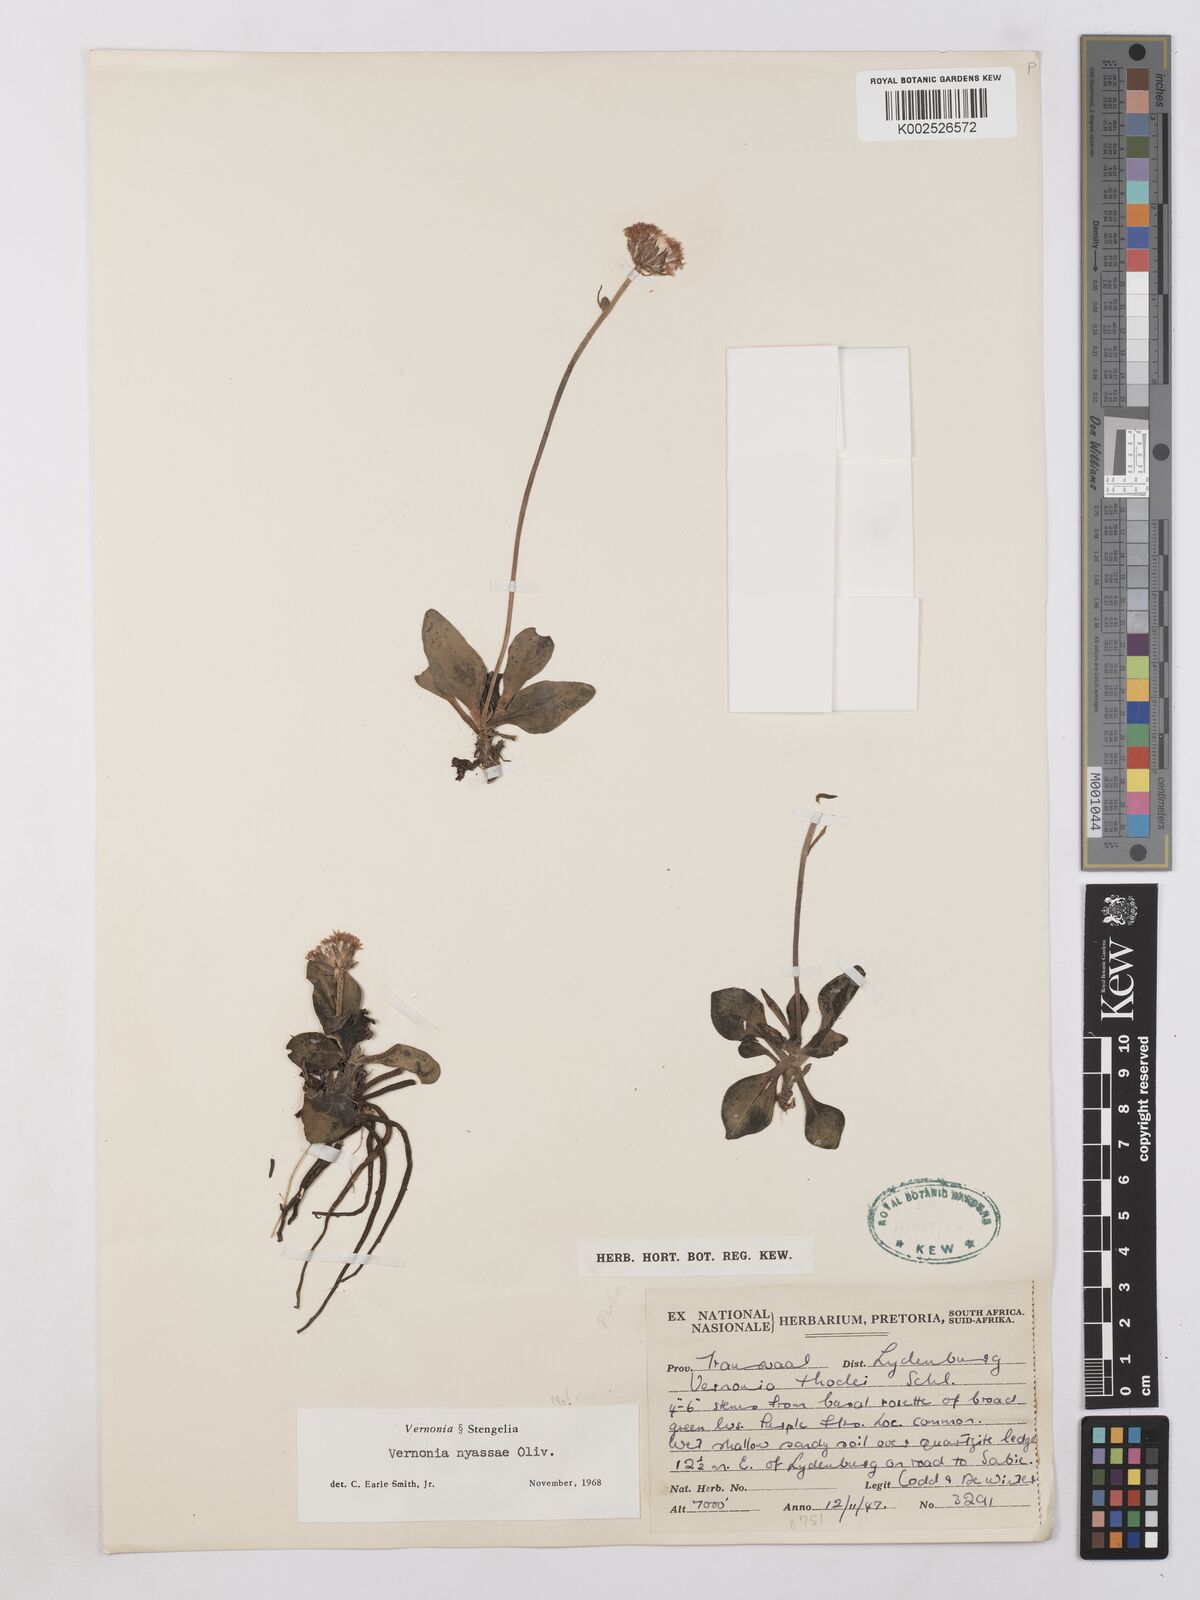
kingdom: Plantae
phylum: Tracheophyta
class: Magnoliopsida
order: Asterales
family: Asteraceae
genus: Lettowia
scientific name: Lettowia nyassae
